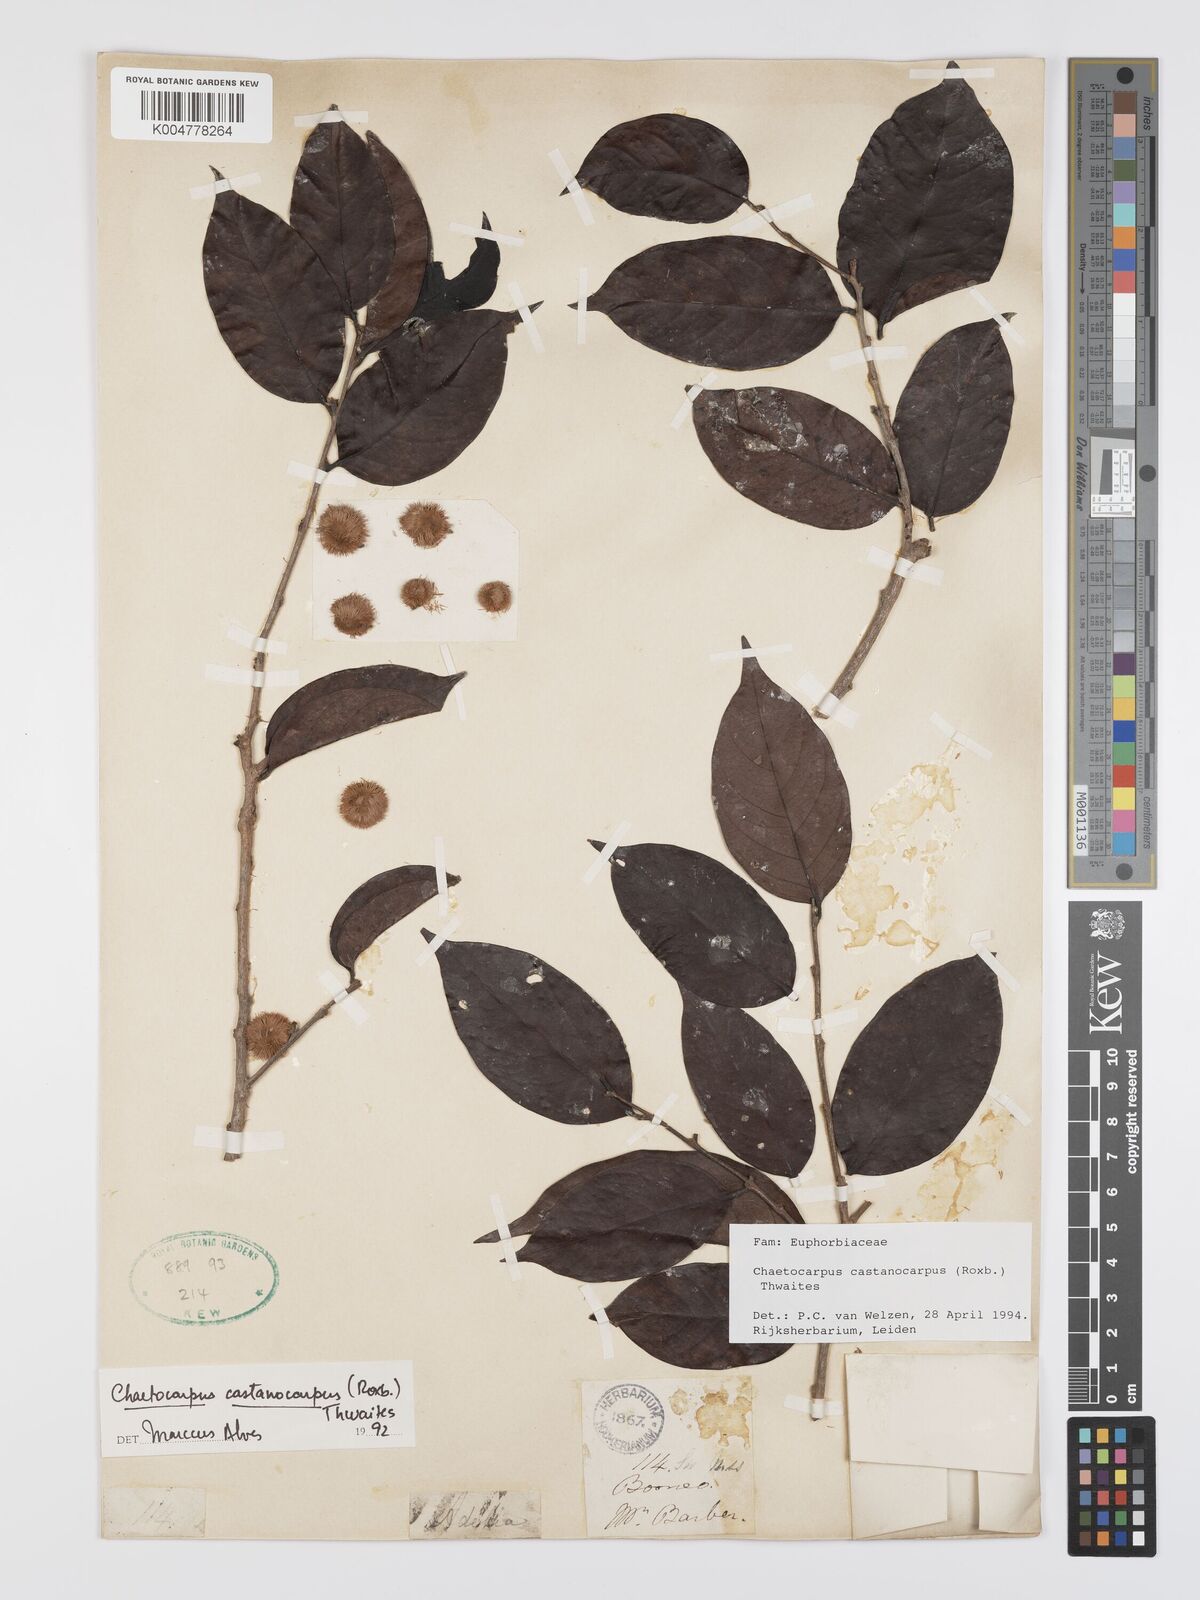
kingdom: Plantae
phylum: Tracheophyta
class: Magnoliopsida
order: Malpighiales
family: Peraceae
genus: Chaetocarpus
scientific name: Chaetocarpus castanocarpus
